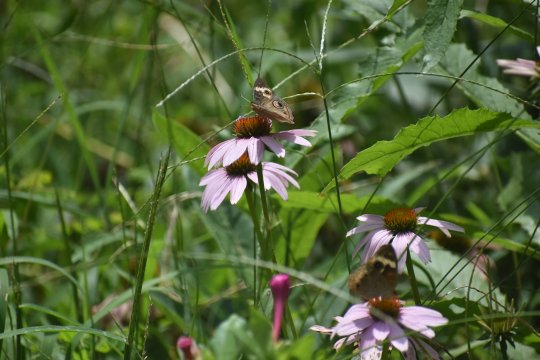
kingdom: Animalia
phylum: Arthropoda
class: Insecta
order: Lepidoptera
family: Nymphalidae
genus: Junonia
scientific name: Junonia coenia
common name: Common Buckeye
